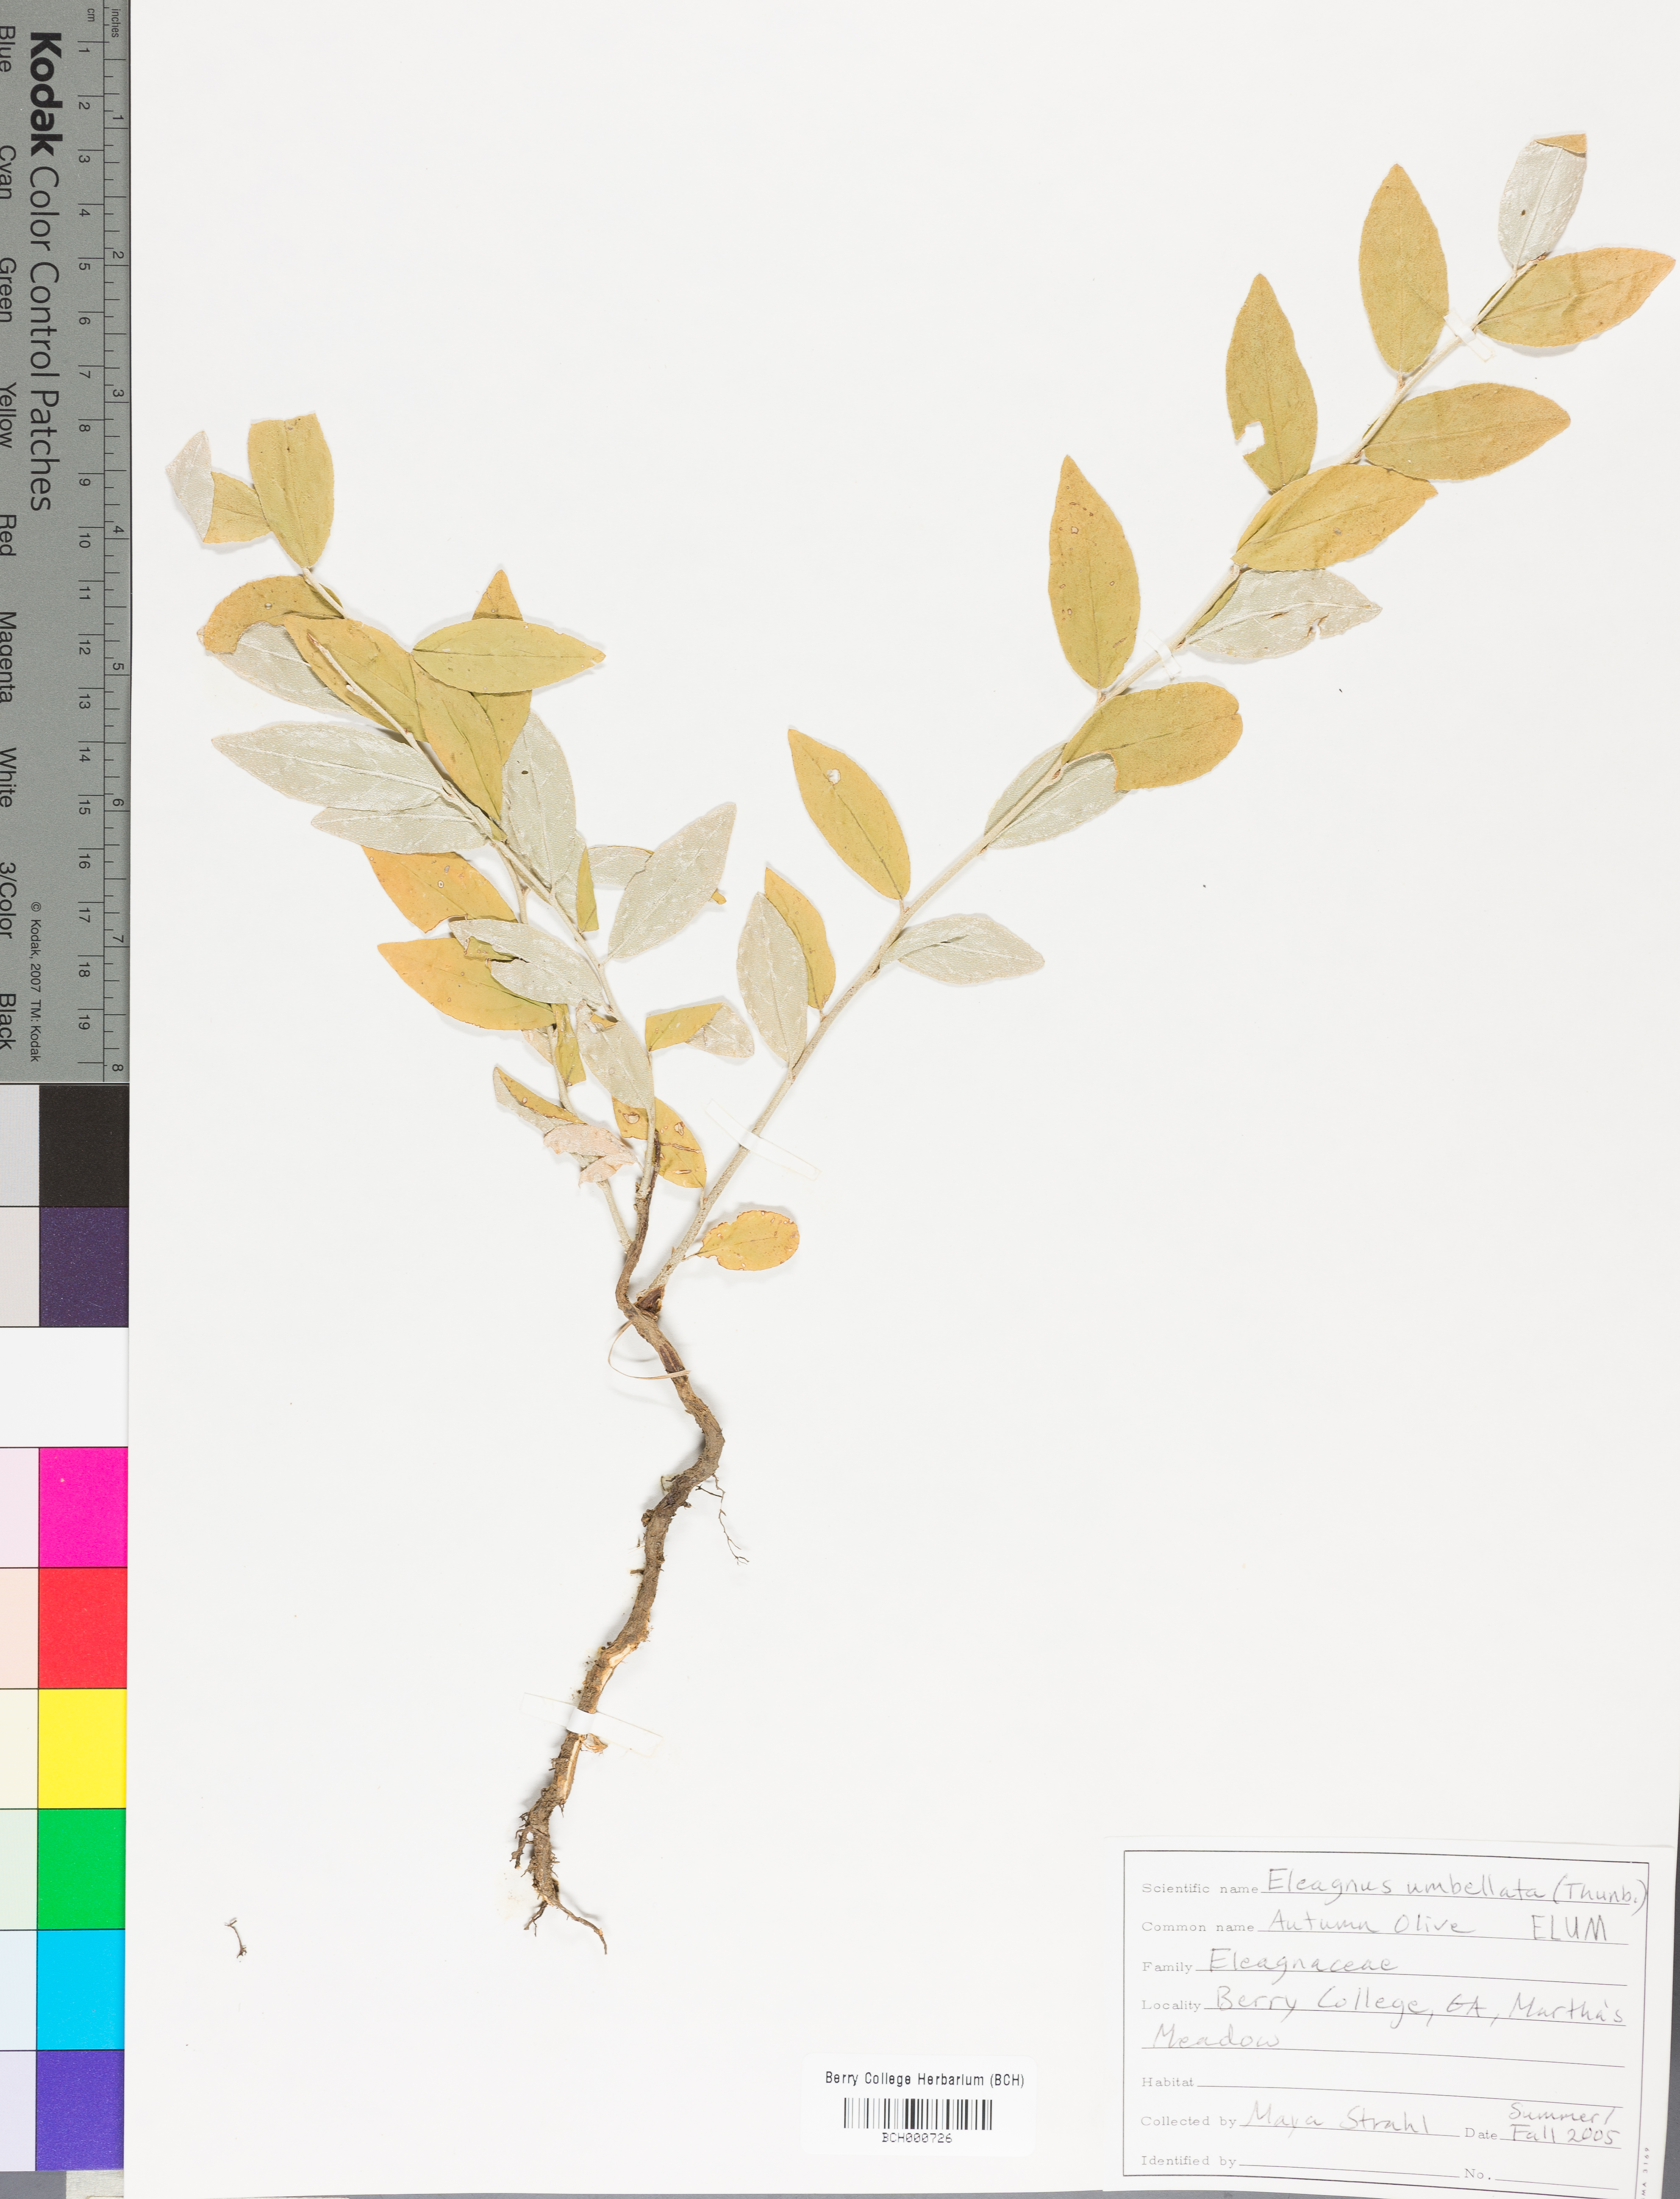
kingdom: Plantae
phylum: Tracheophyta
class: Magnoliopsida
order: Rosales
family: Elaeagnaceae
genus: Elaeagnus
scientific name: Elaeagnus umbellata
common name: Autumn olive
